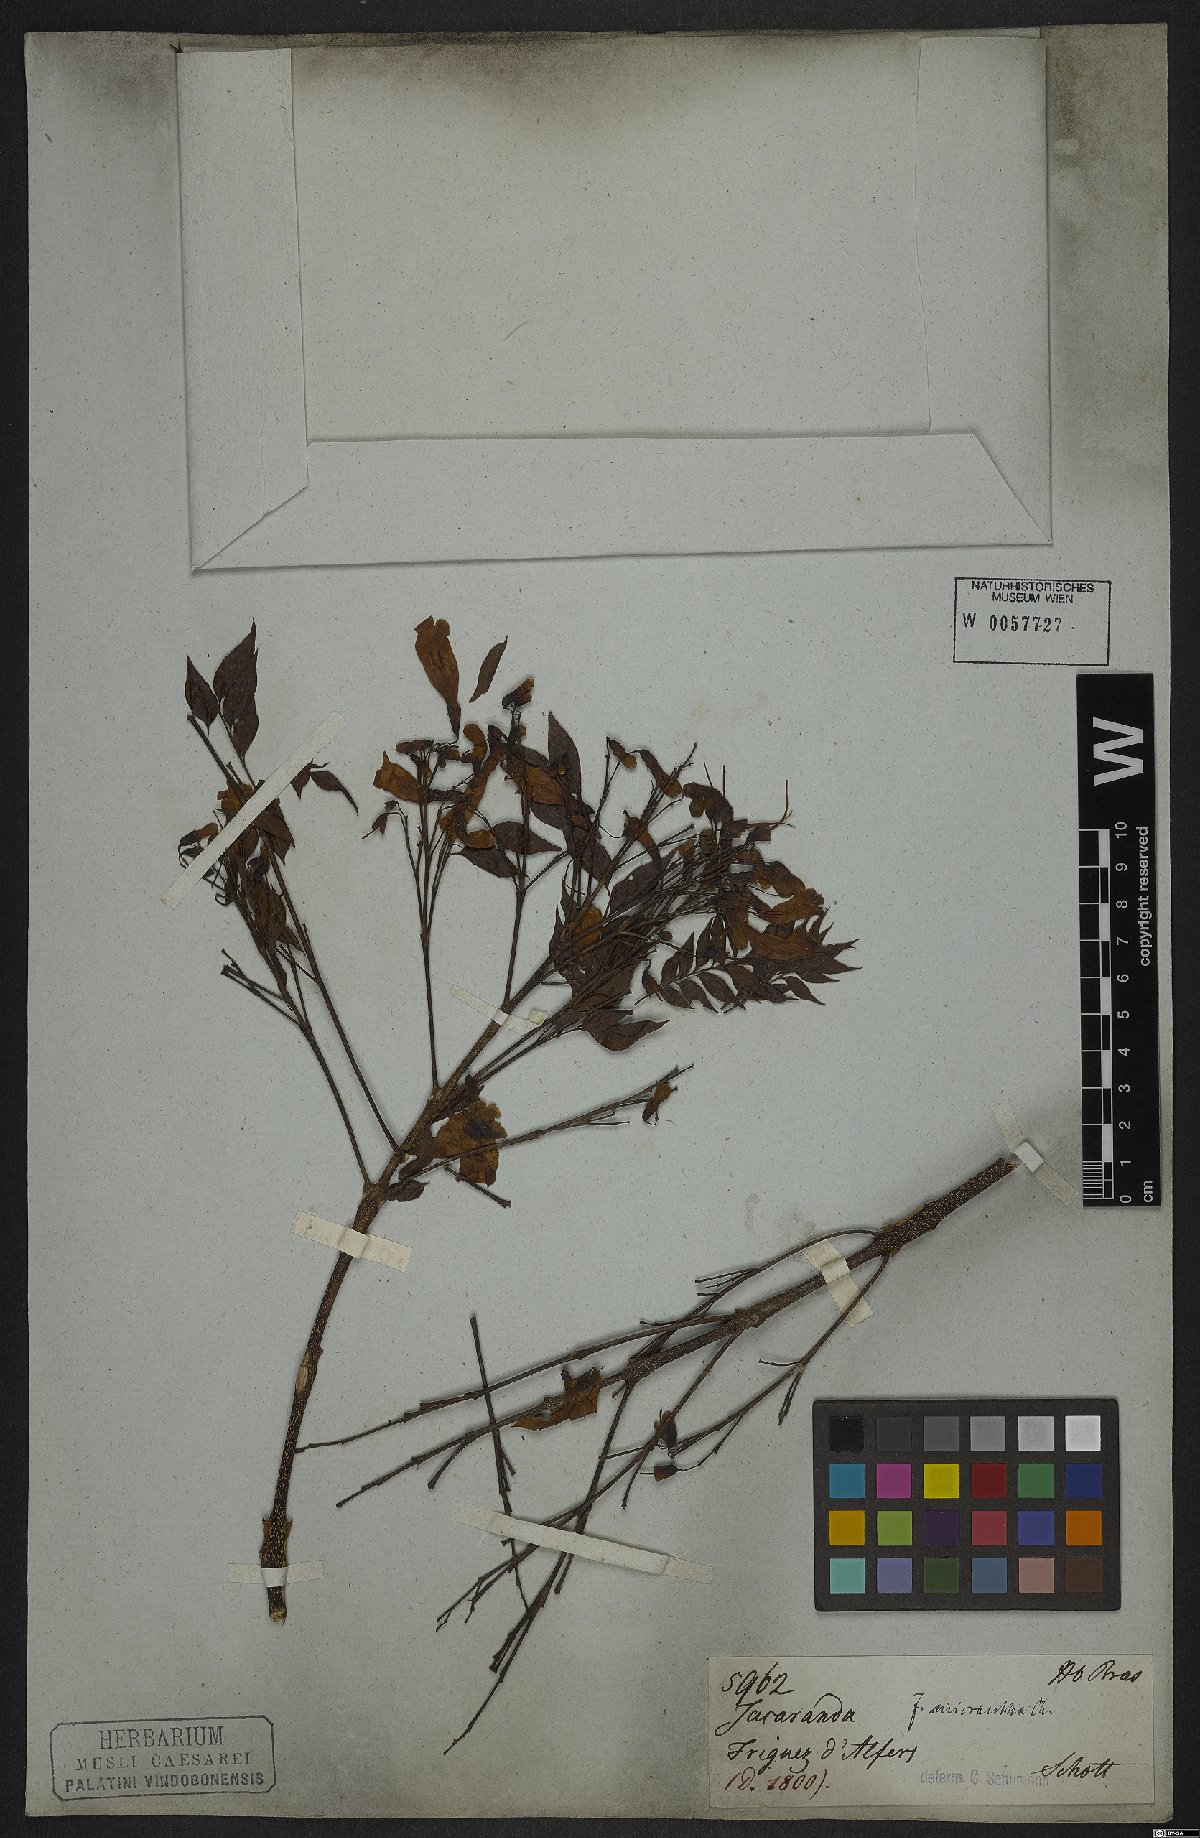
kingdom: Plantae
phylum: Tracheophyta
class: Magnoliopsida
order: Lamiales
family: Bignoniaceae
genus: Jacaranda
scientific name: Jacaranda micrantha
